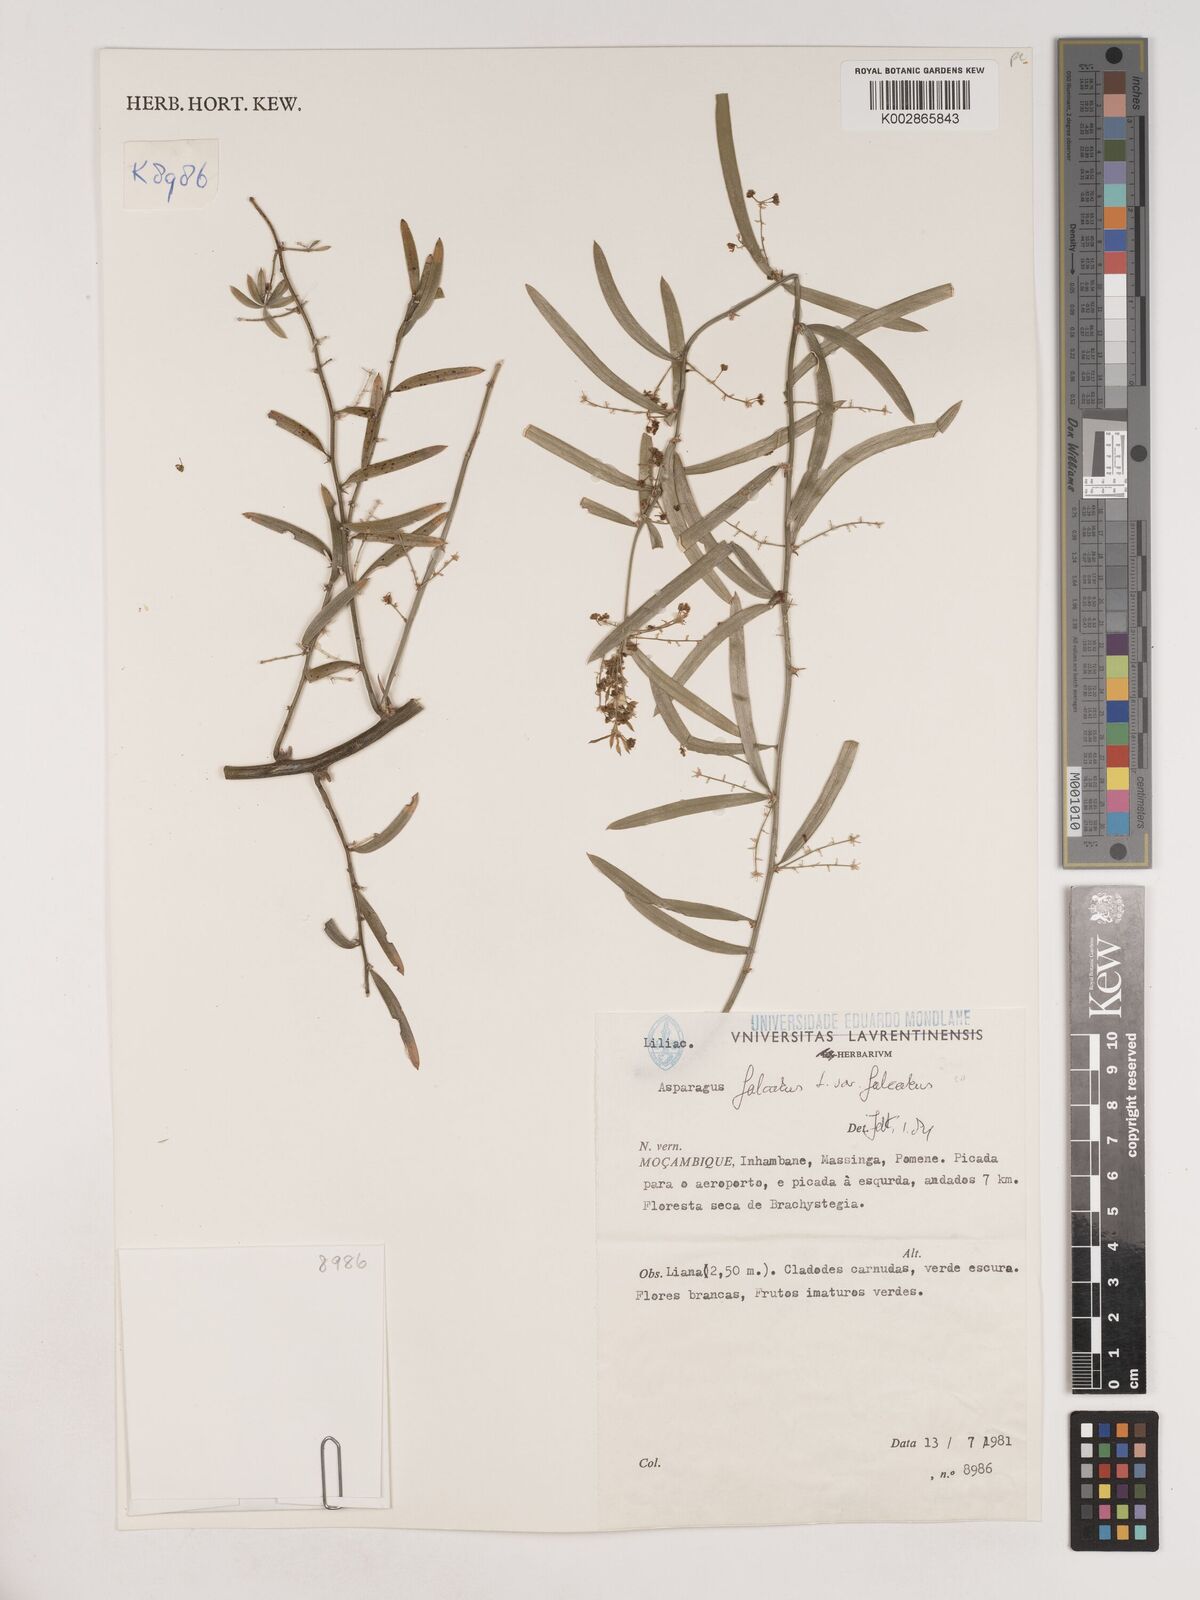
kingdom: Plantae
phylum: Tracheophyta
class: Liliopsida
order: Asparagales
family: Asparagaceae
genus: Asparagus
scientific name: Asparagus falcatus
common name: Asparagus
